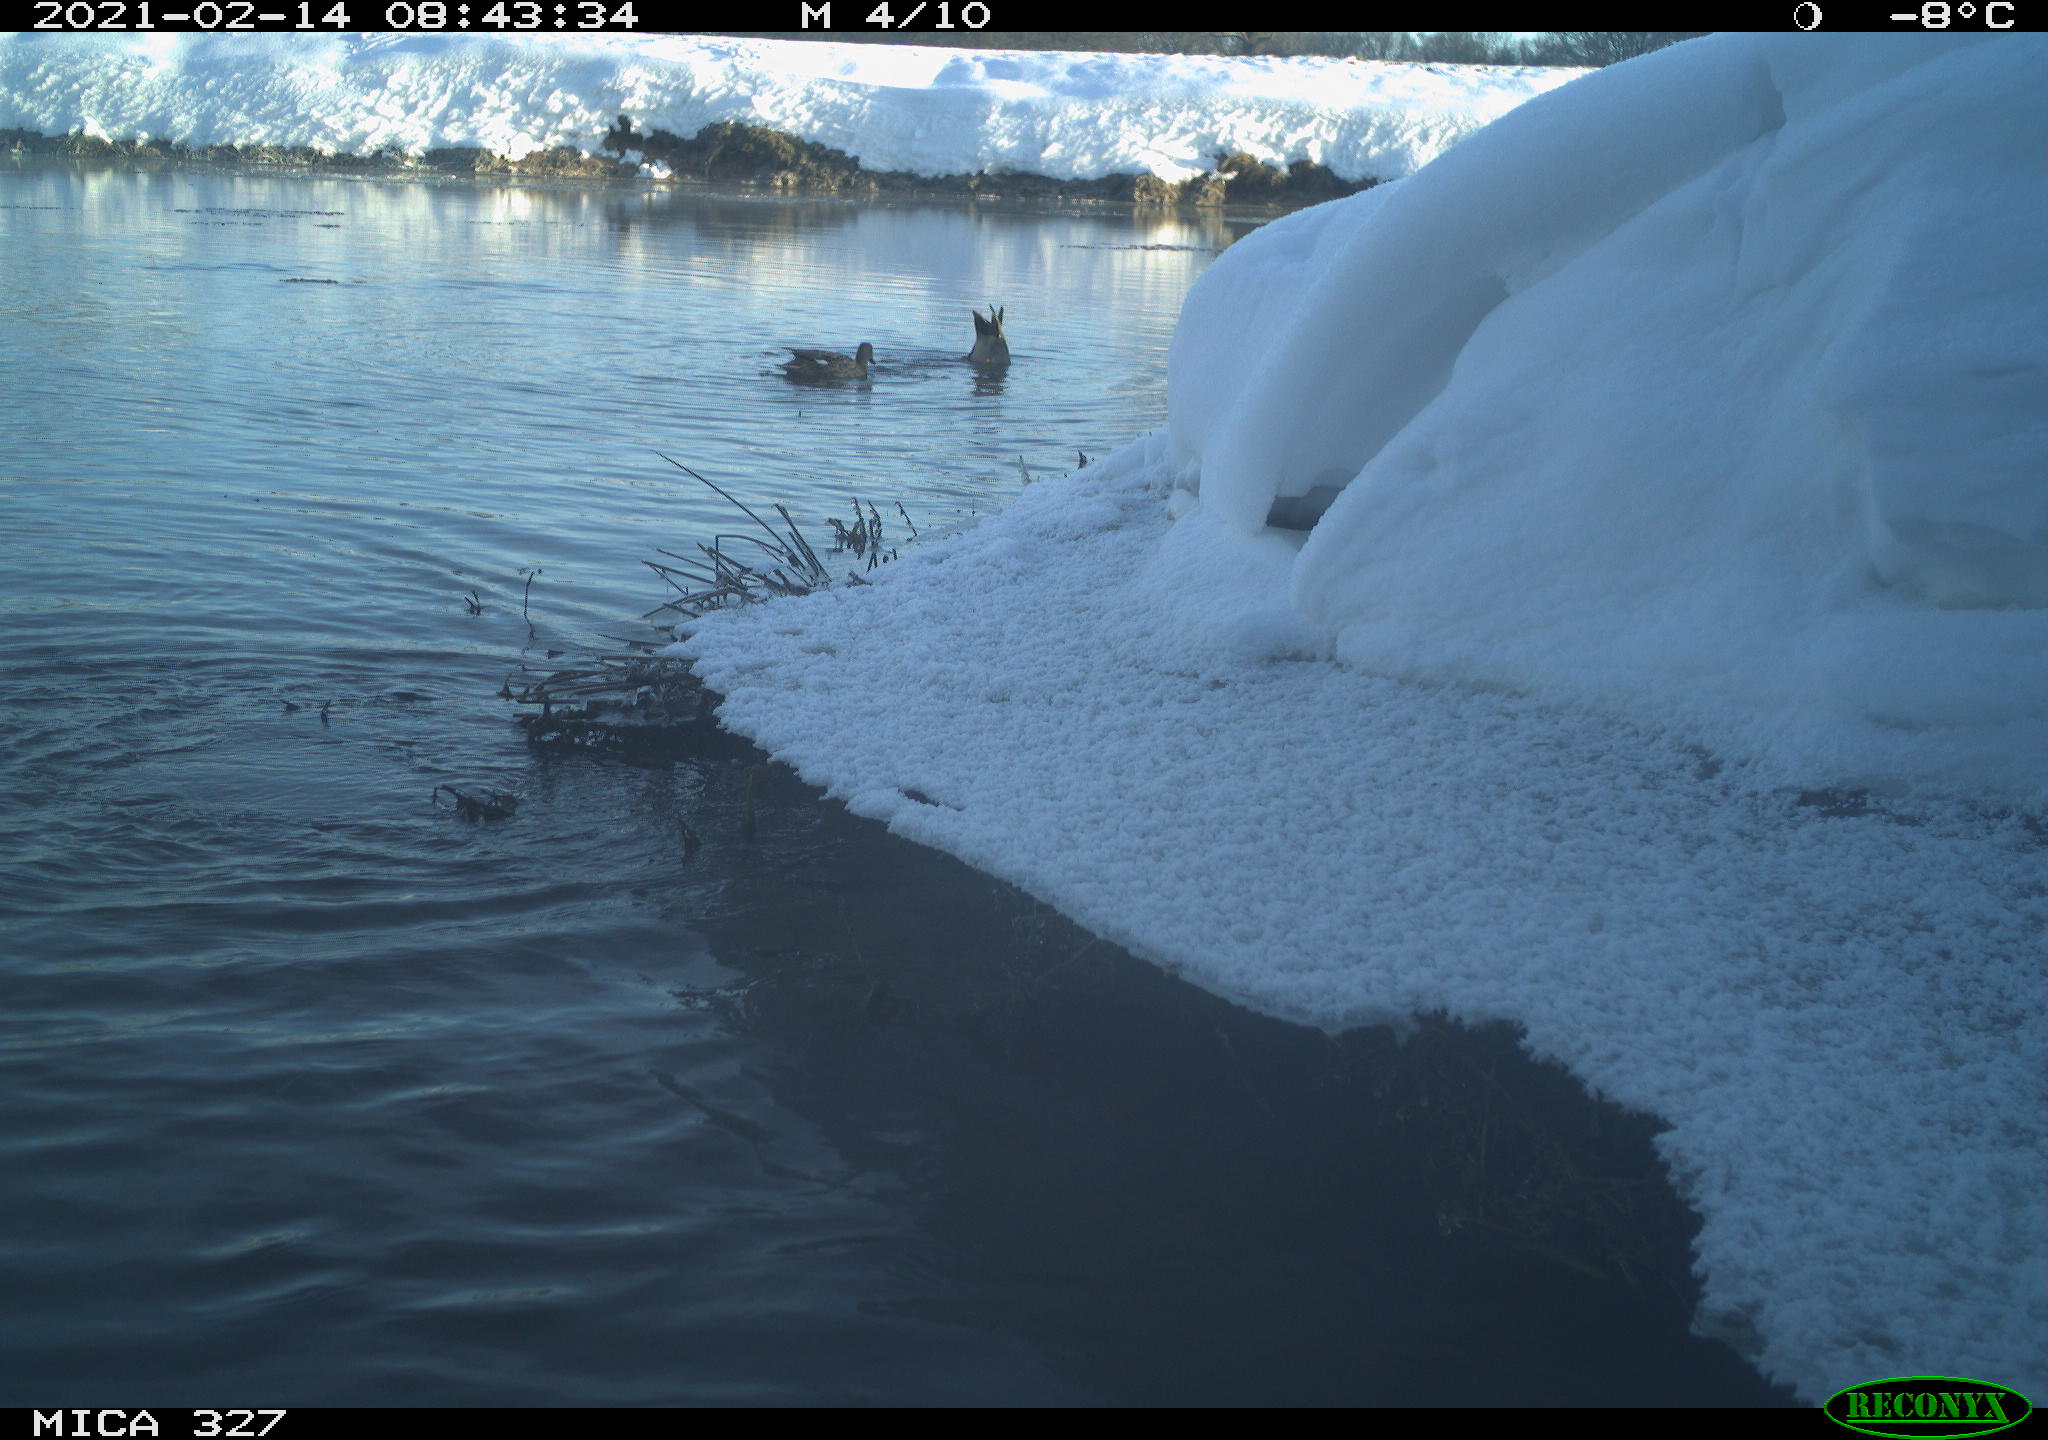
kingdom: Animalia
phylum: Chordata
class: Aves
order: Suliformes
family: Phalacrocoracidae
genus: Phalacrocorax
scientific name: Phalacrocorax carbo
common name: Great cormorant
